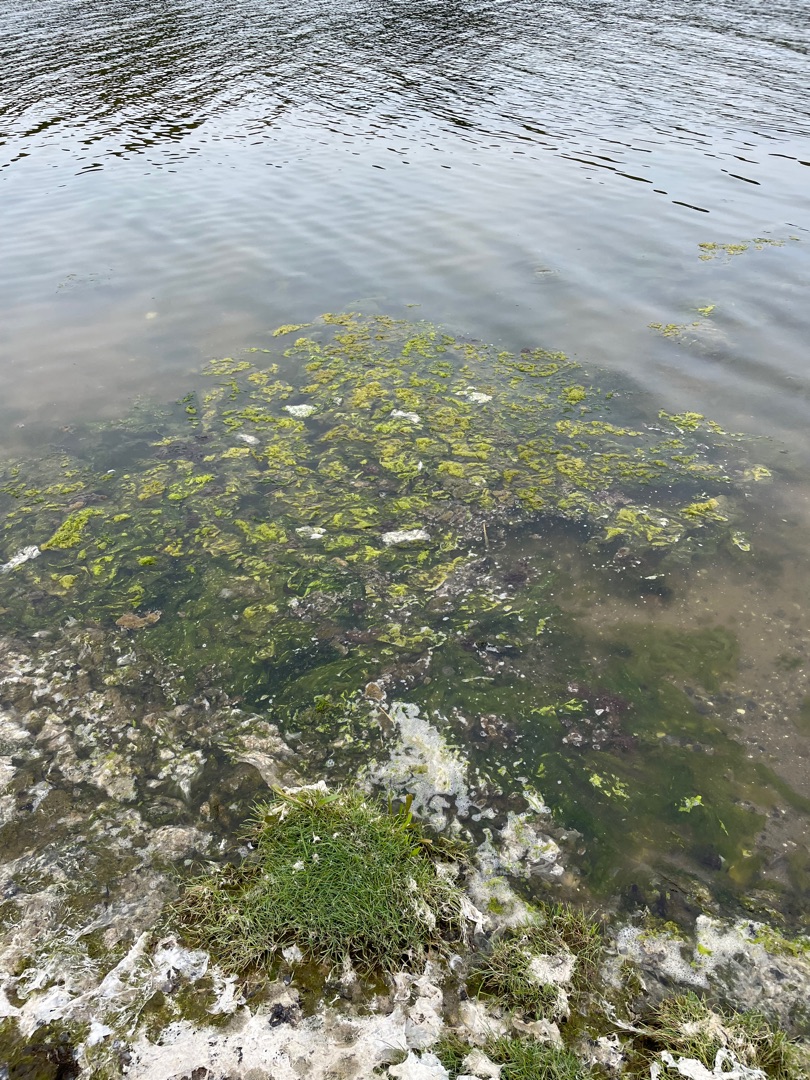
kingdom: Plantae
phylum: Chlorophyta
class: Ulvophyceae
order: Ulvales
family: Ulvaceae
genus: Ulva
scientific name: Ulva fenestrata
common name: Søsalat
